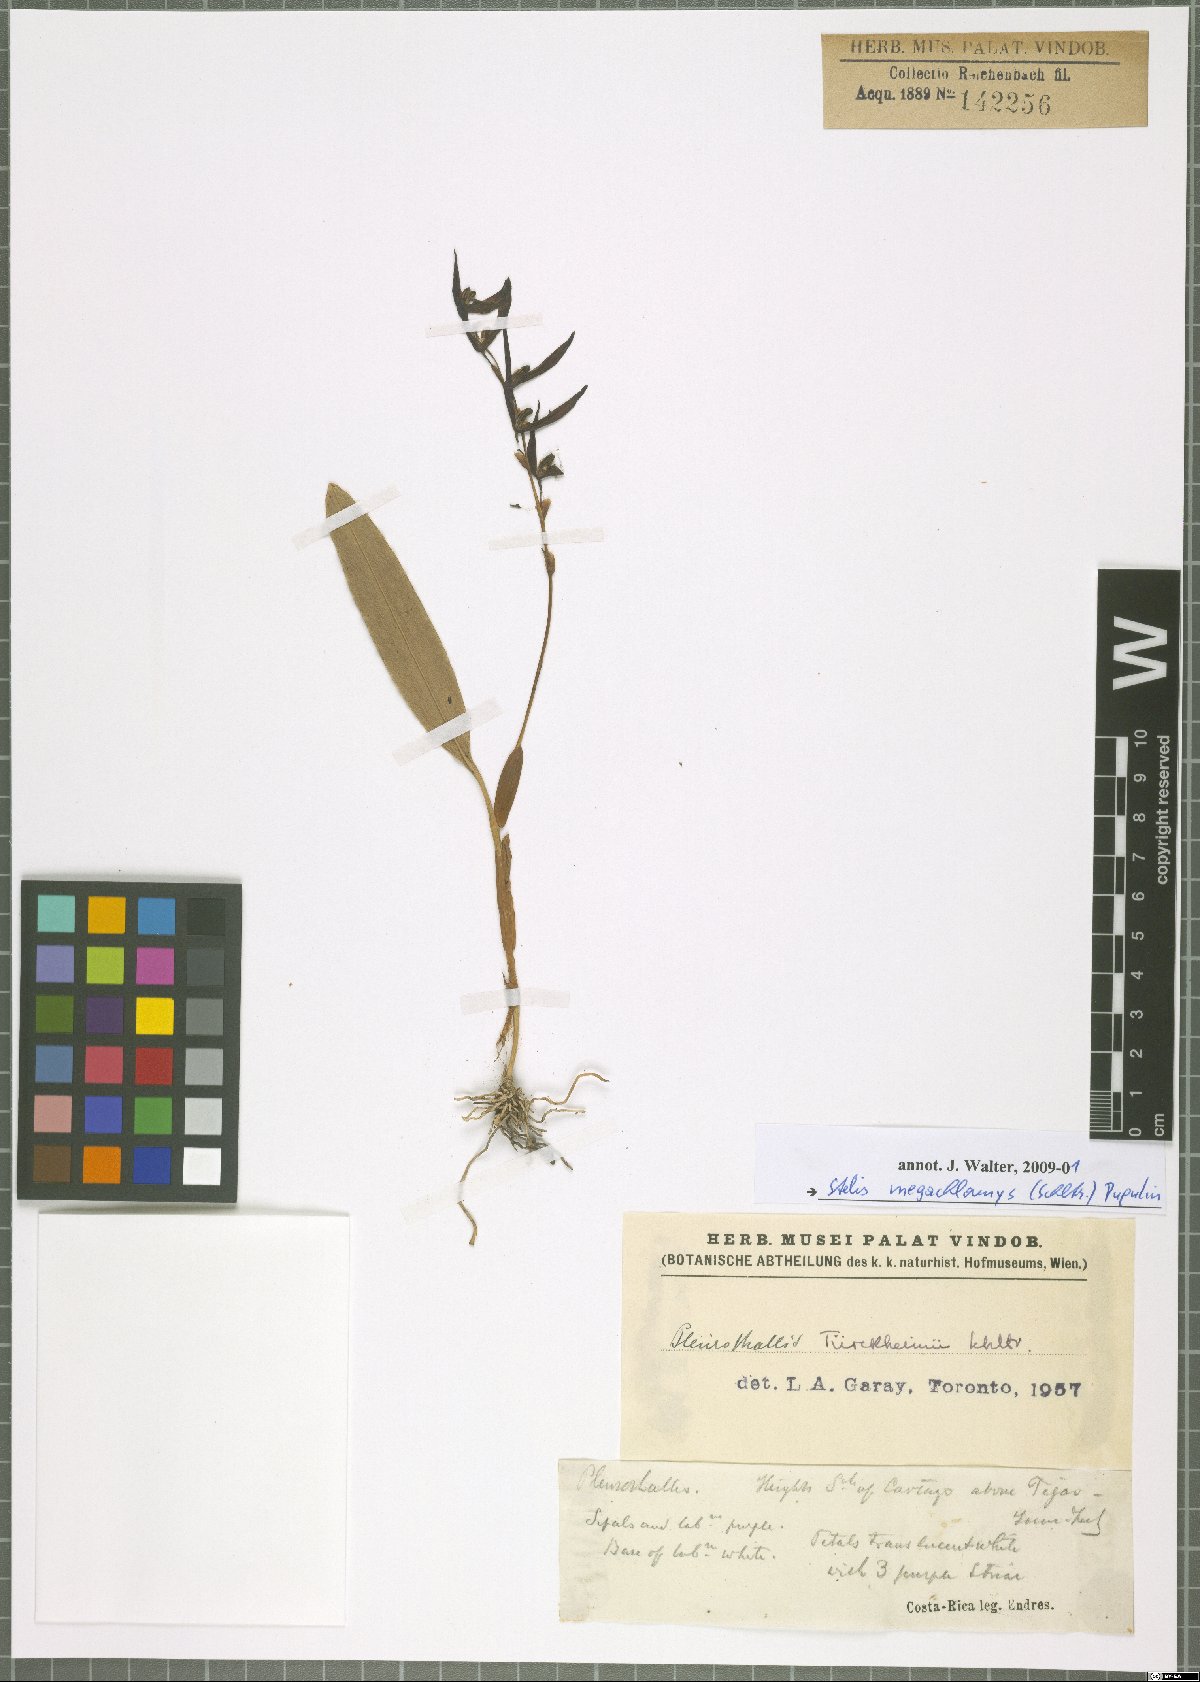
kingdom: Plantae
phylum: Tracheophyta
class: Liliopsida
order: Asparagales
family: Orchidaceae
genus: Stelis
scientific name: Stelis megachlamys
